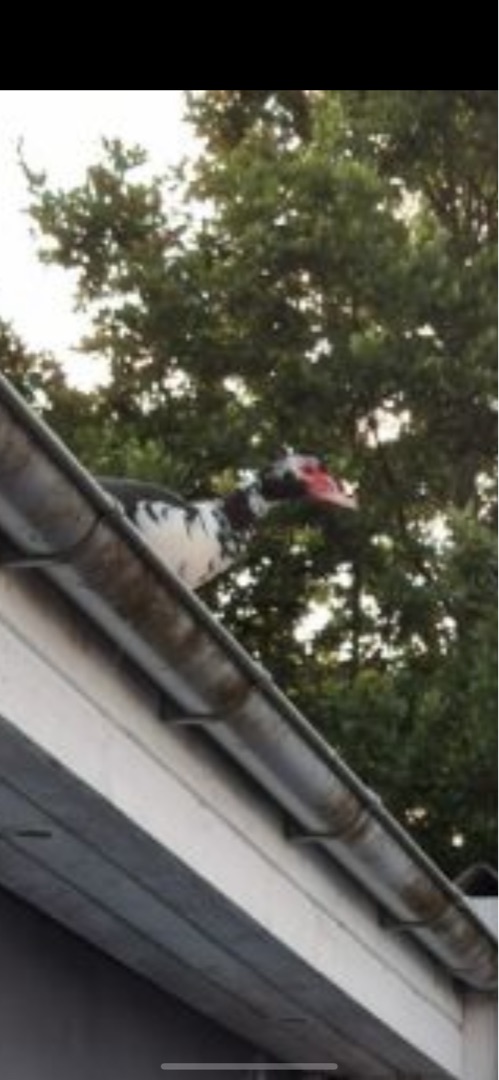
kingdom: Animalia
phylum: Chordata
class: Aves
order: Anseriformes
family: Anatidae
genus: Cairina
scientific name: Cairina moschata
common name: Moskusand
